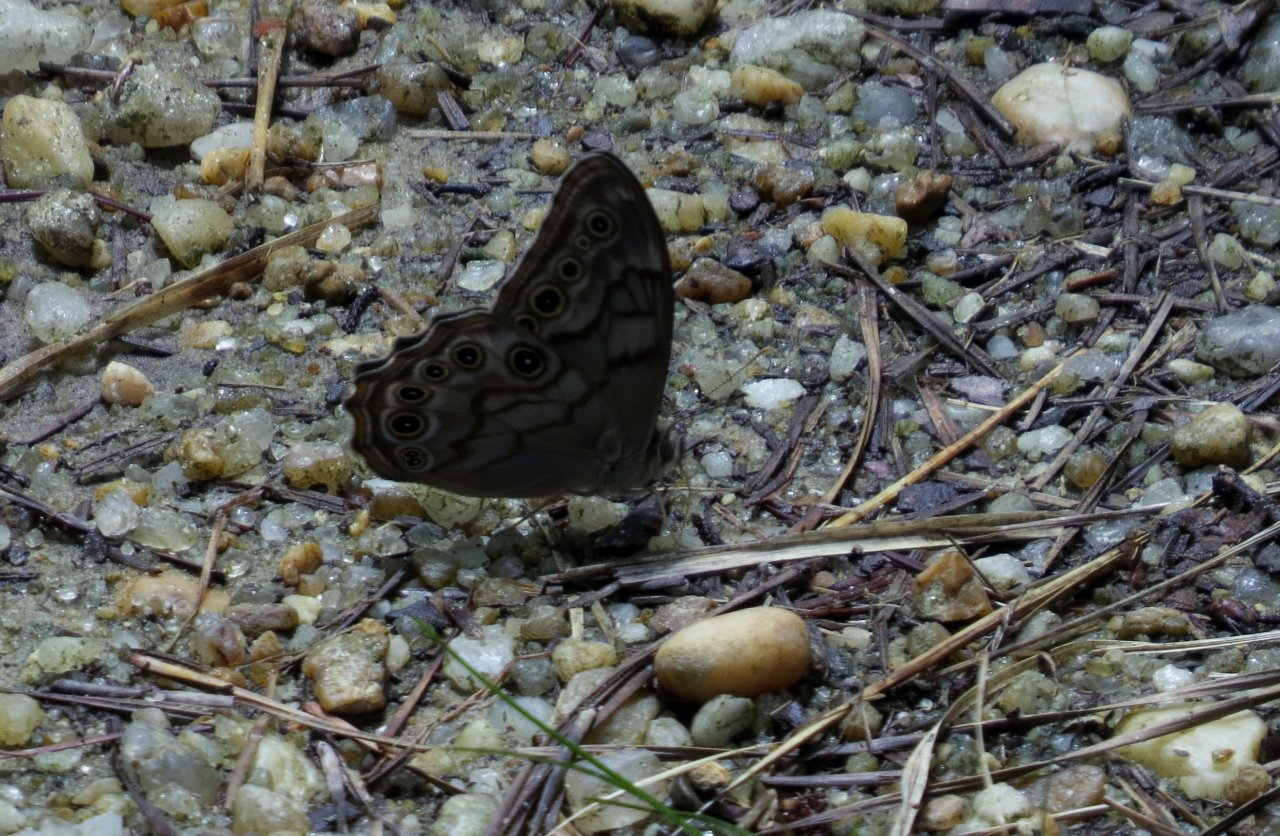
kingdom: Animalia
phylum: Arthropoda
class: Insecta
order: Lepidoptera
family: Nymphalidae
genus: Lethe
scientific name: Lethe
